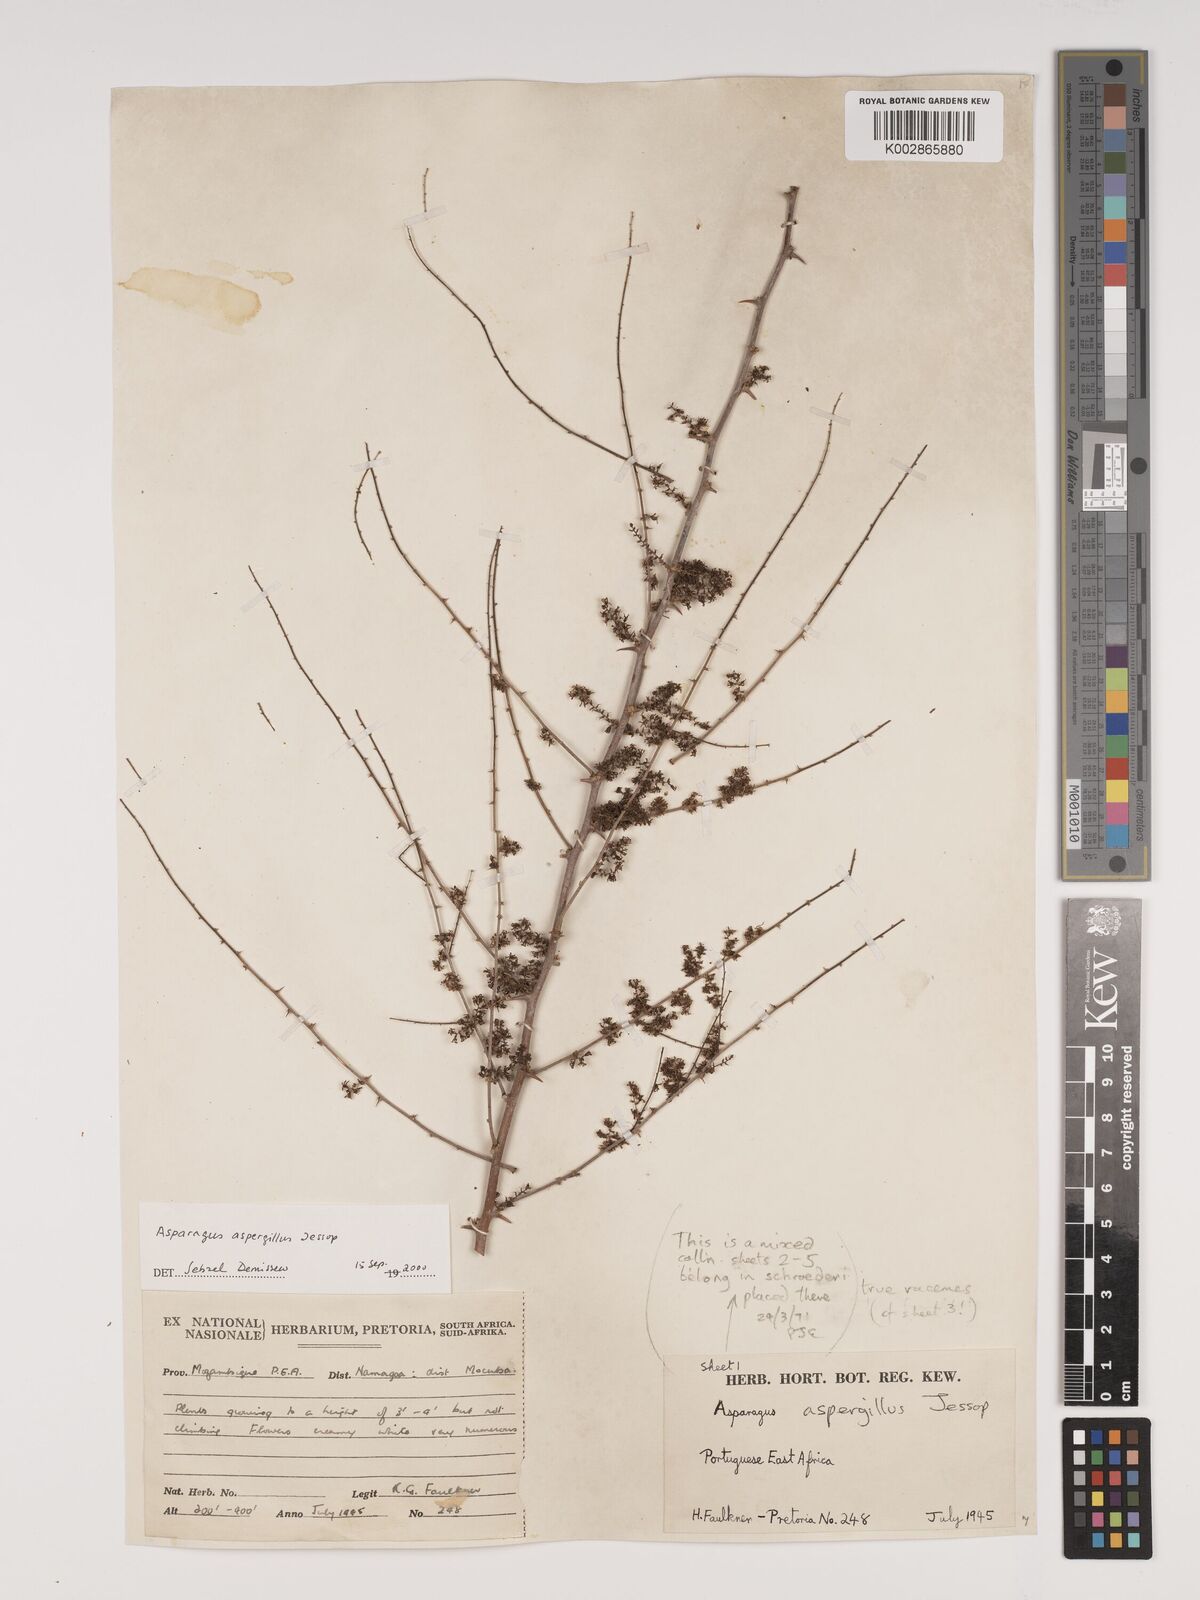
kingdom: Plantae
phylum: Tracheophyta
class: Liliopsida
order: Asparagales
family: Asparagaceae
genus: Asparagus
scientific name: Asparagus aspergillus
